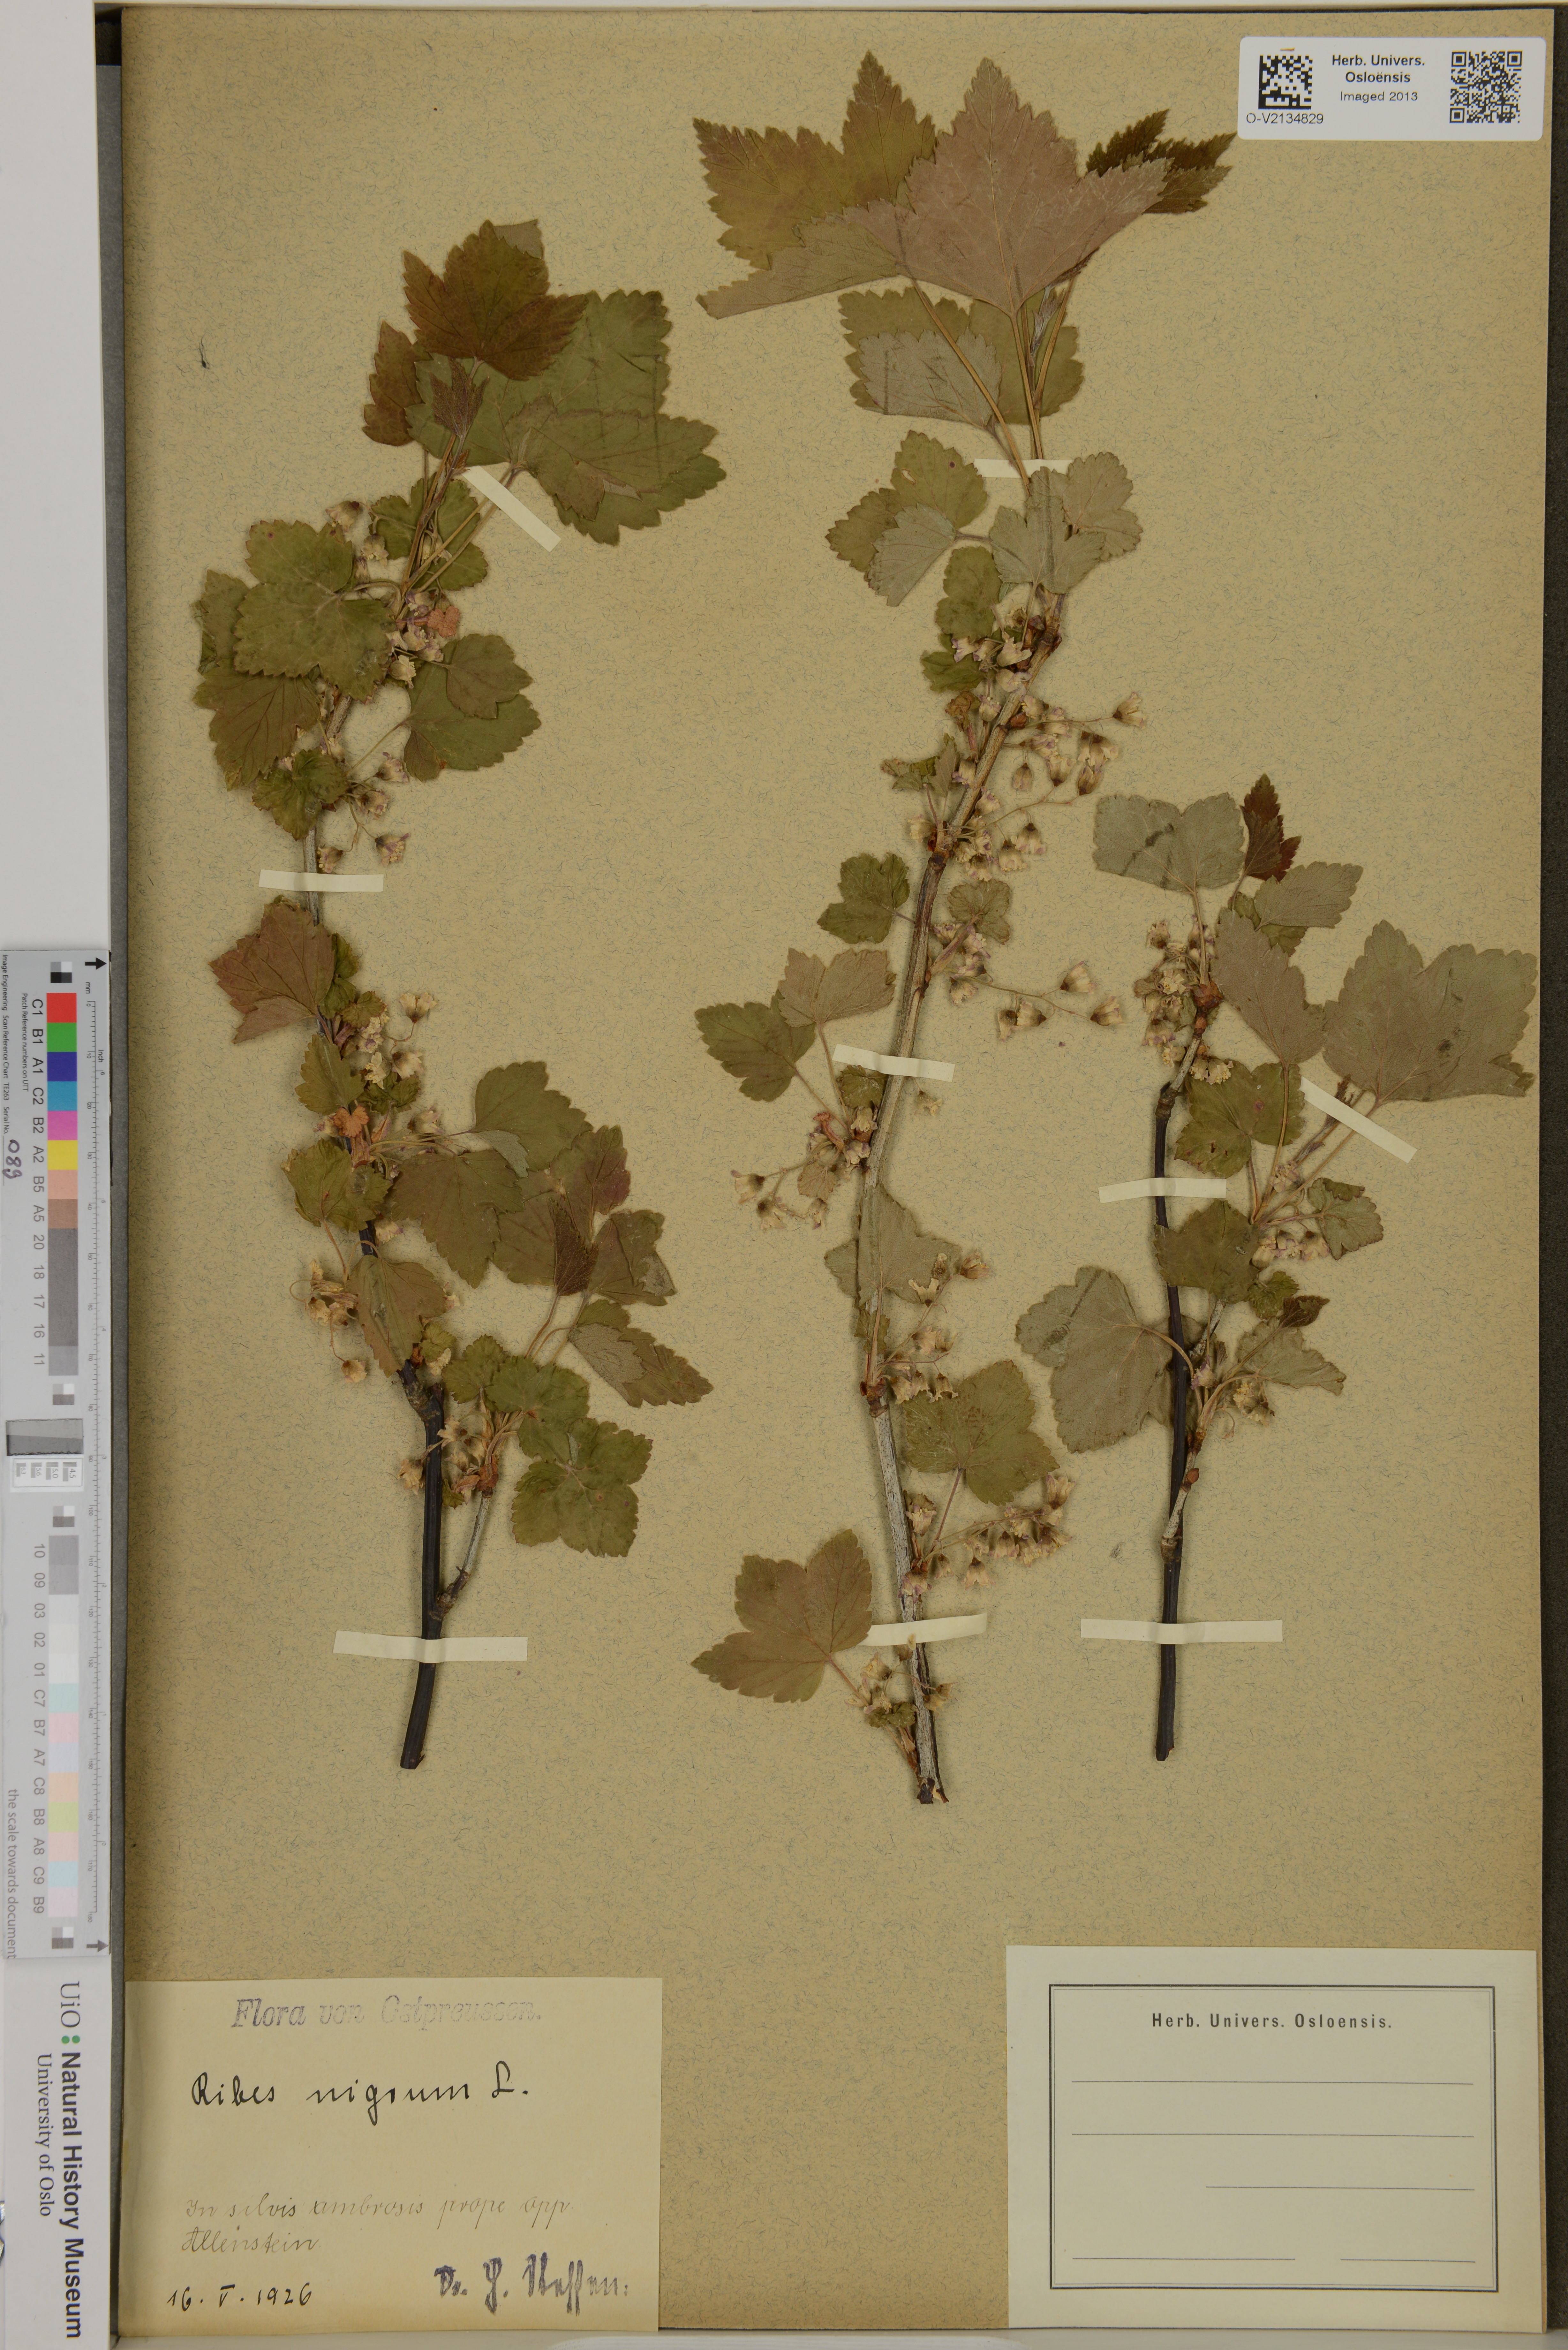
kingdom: Plantae
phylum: Tracheophyta
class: Magnoliopsida
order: Saxifragales
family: Grossulariaceae
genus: Ribes
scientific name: Ribes nigrum
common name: Black currant
